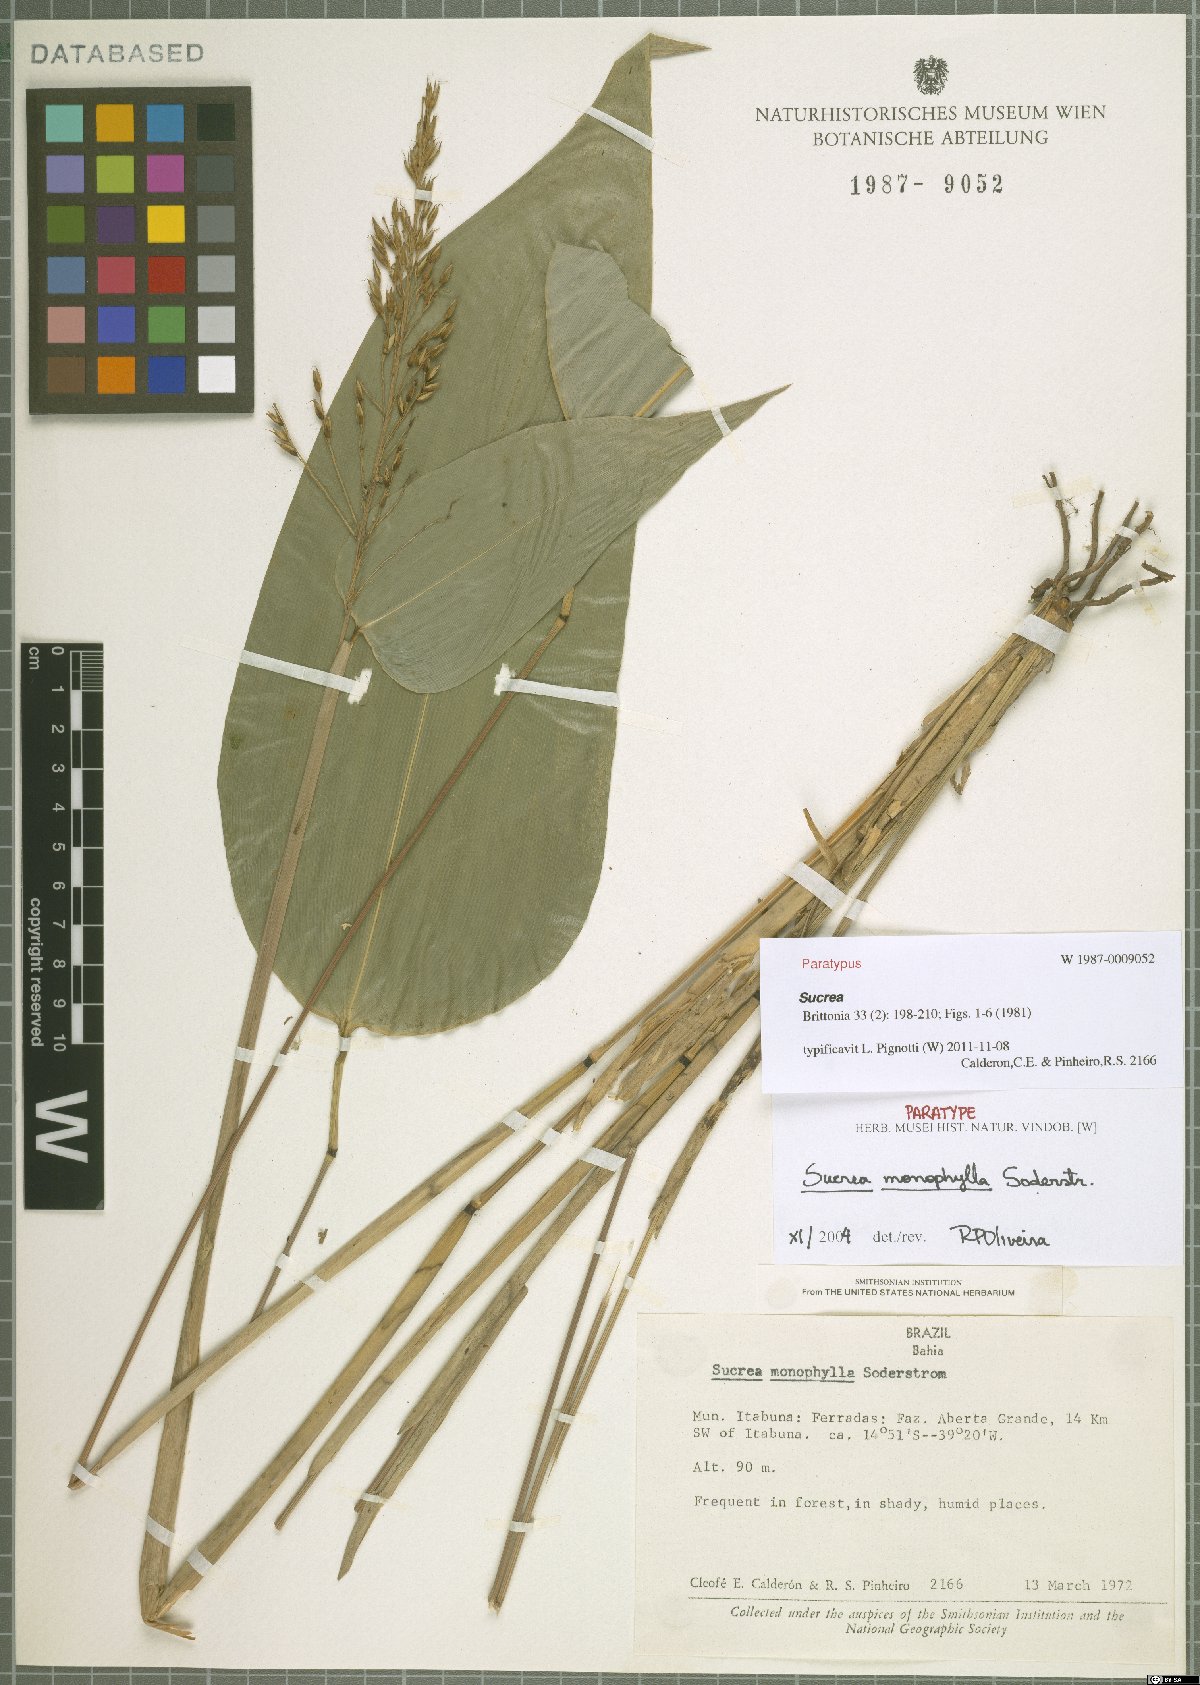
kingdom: Plantae
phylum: Tracheophyta
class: Liliopsida
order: Poales
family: Poaceae
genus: Raddia
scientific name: Raddia monophylla
